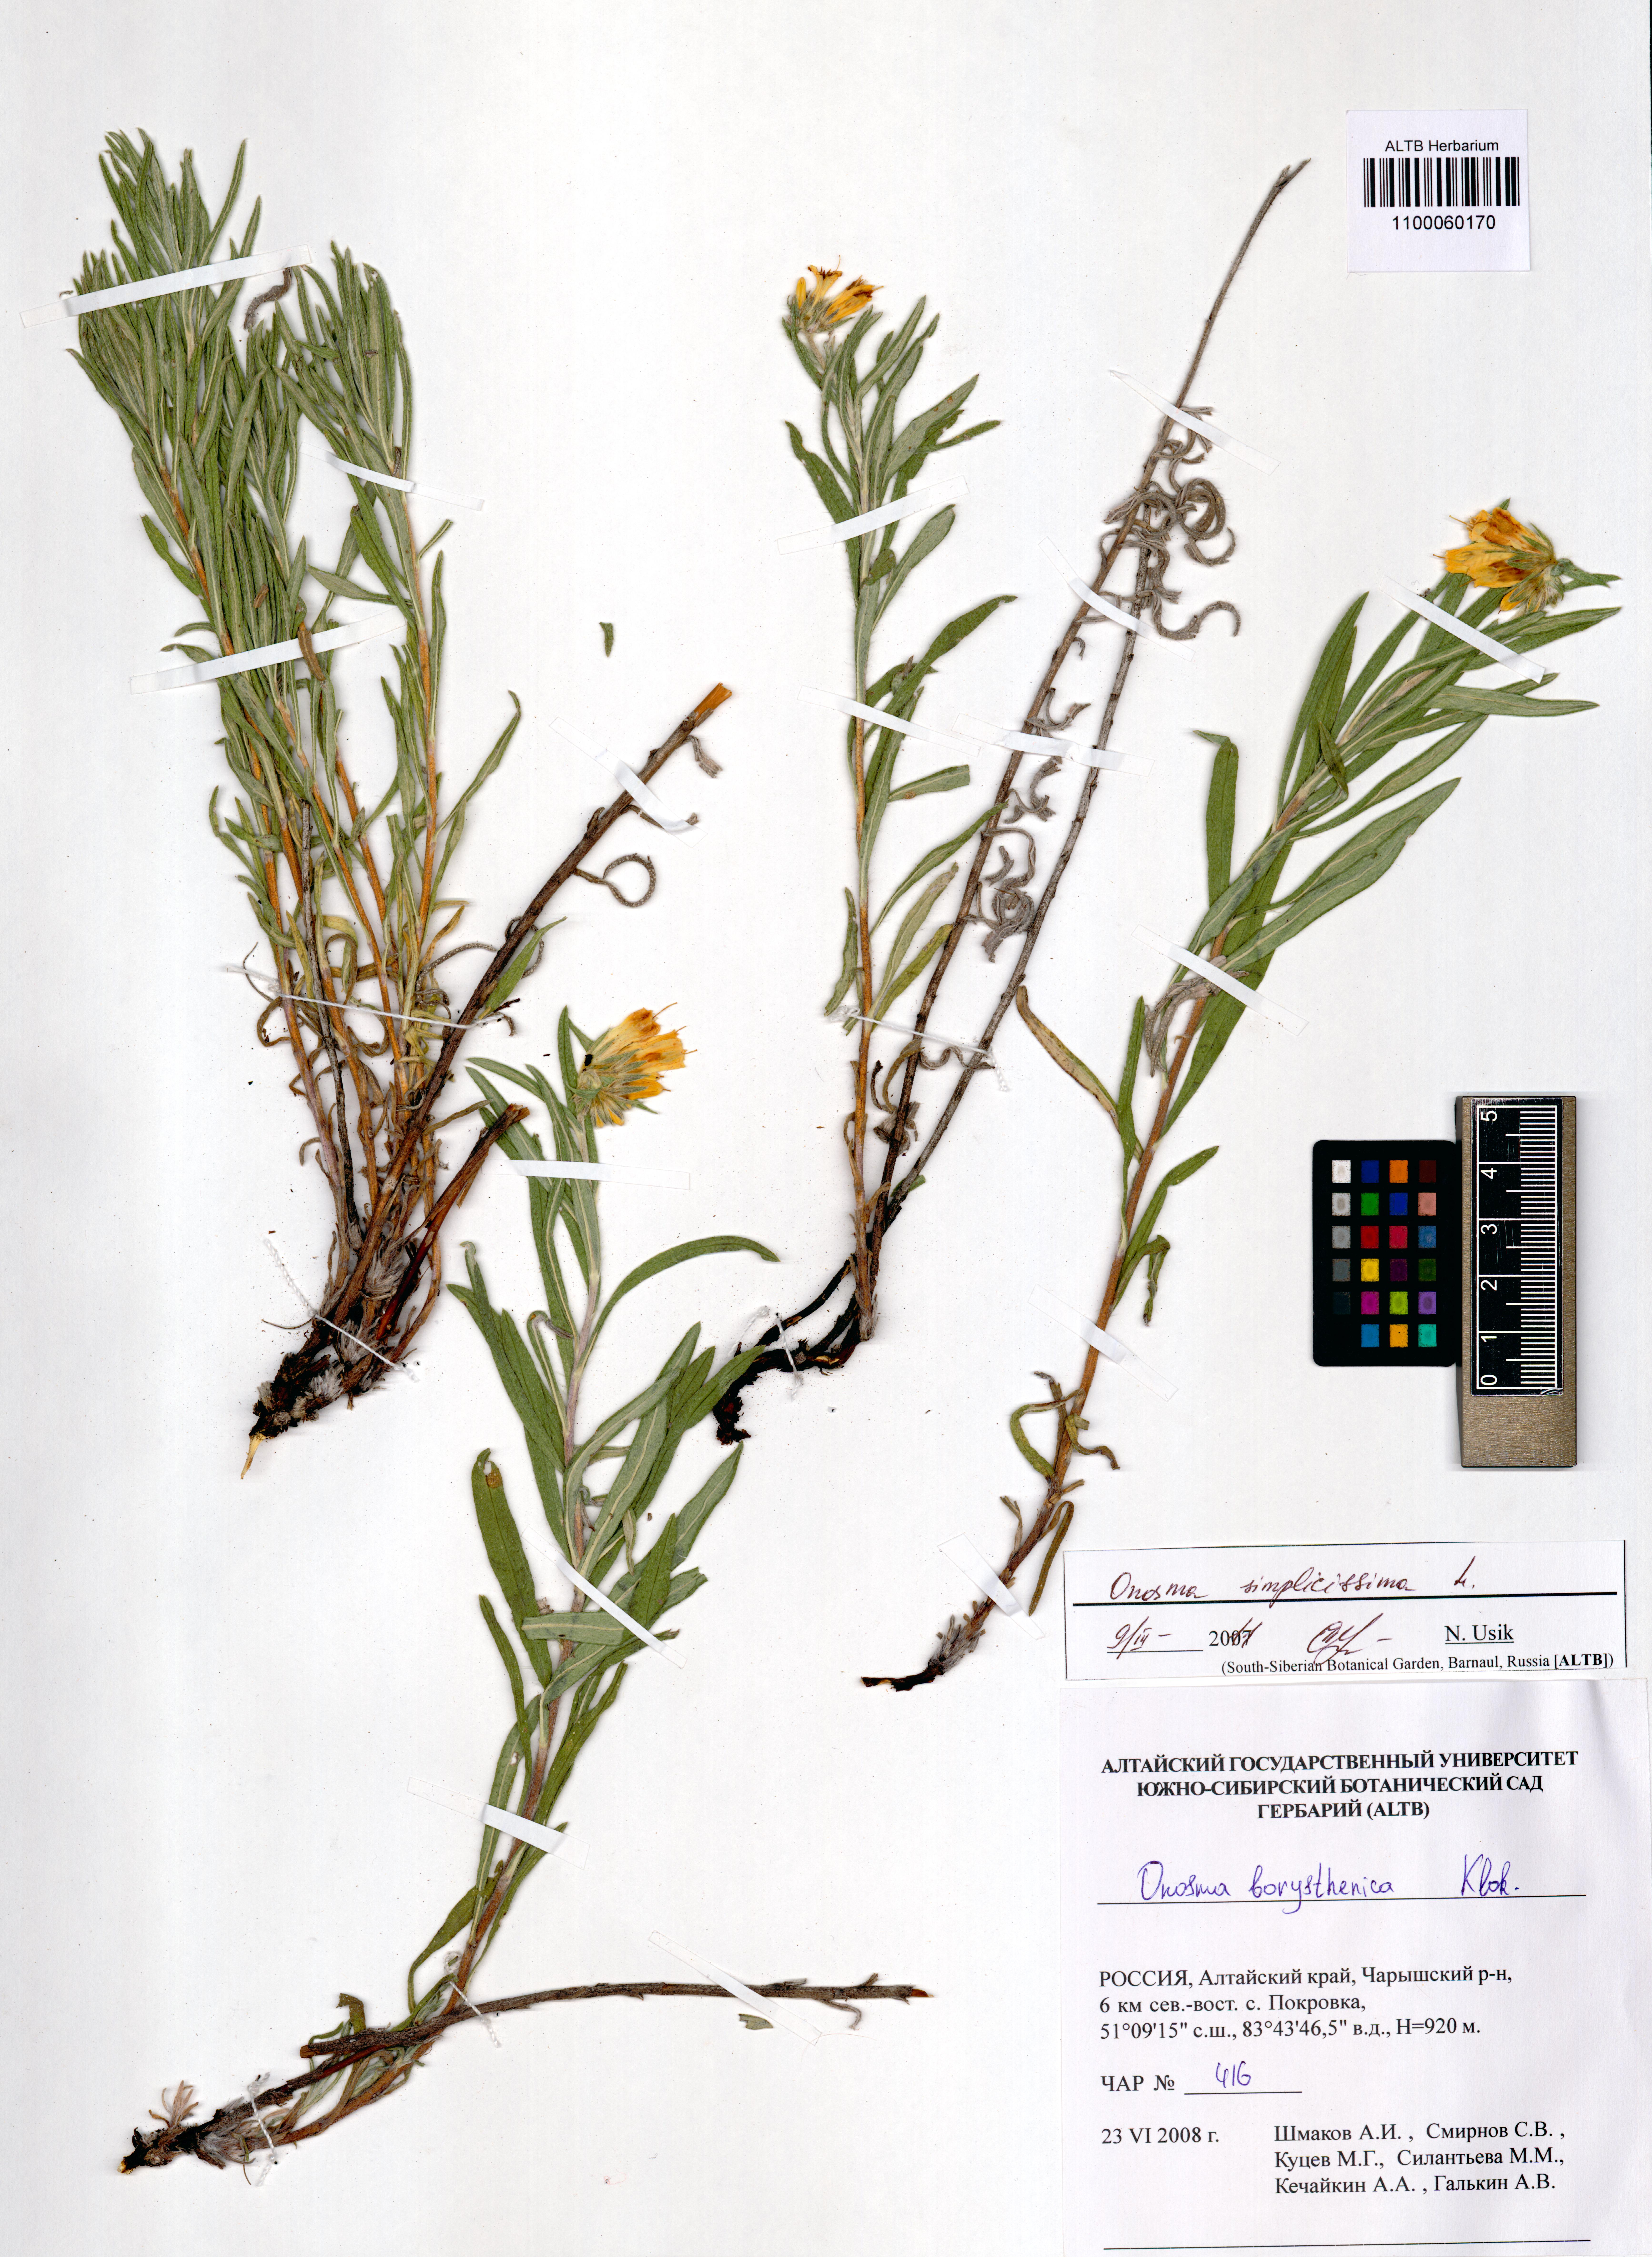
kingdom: Plantae
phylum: Tracheophyta
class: Magnoliopsida
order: Boraginales
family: Boraginaceae
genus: Onosma
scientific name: Onosma simplicissima
